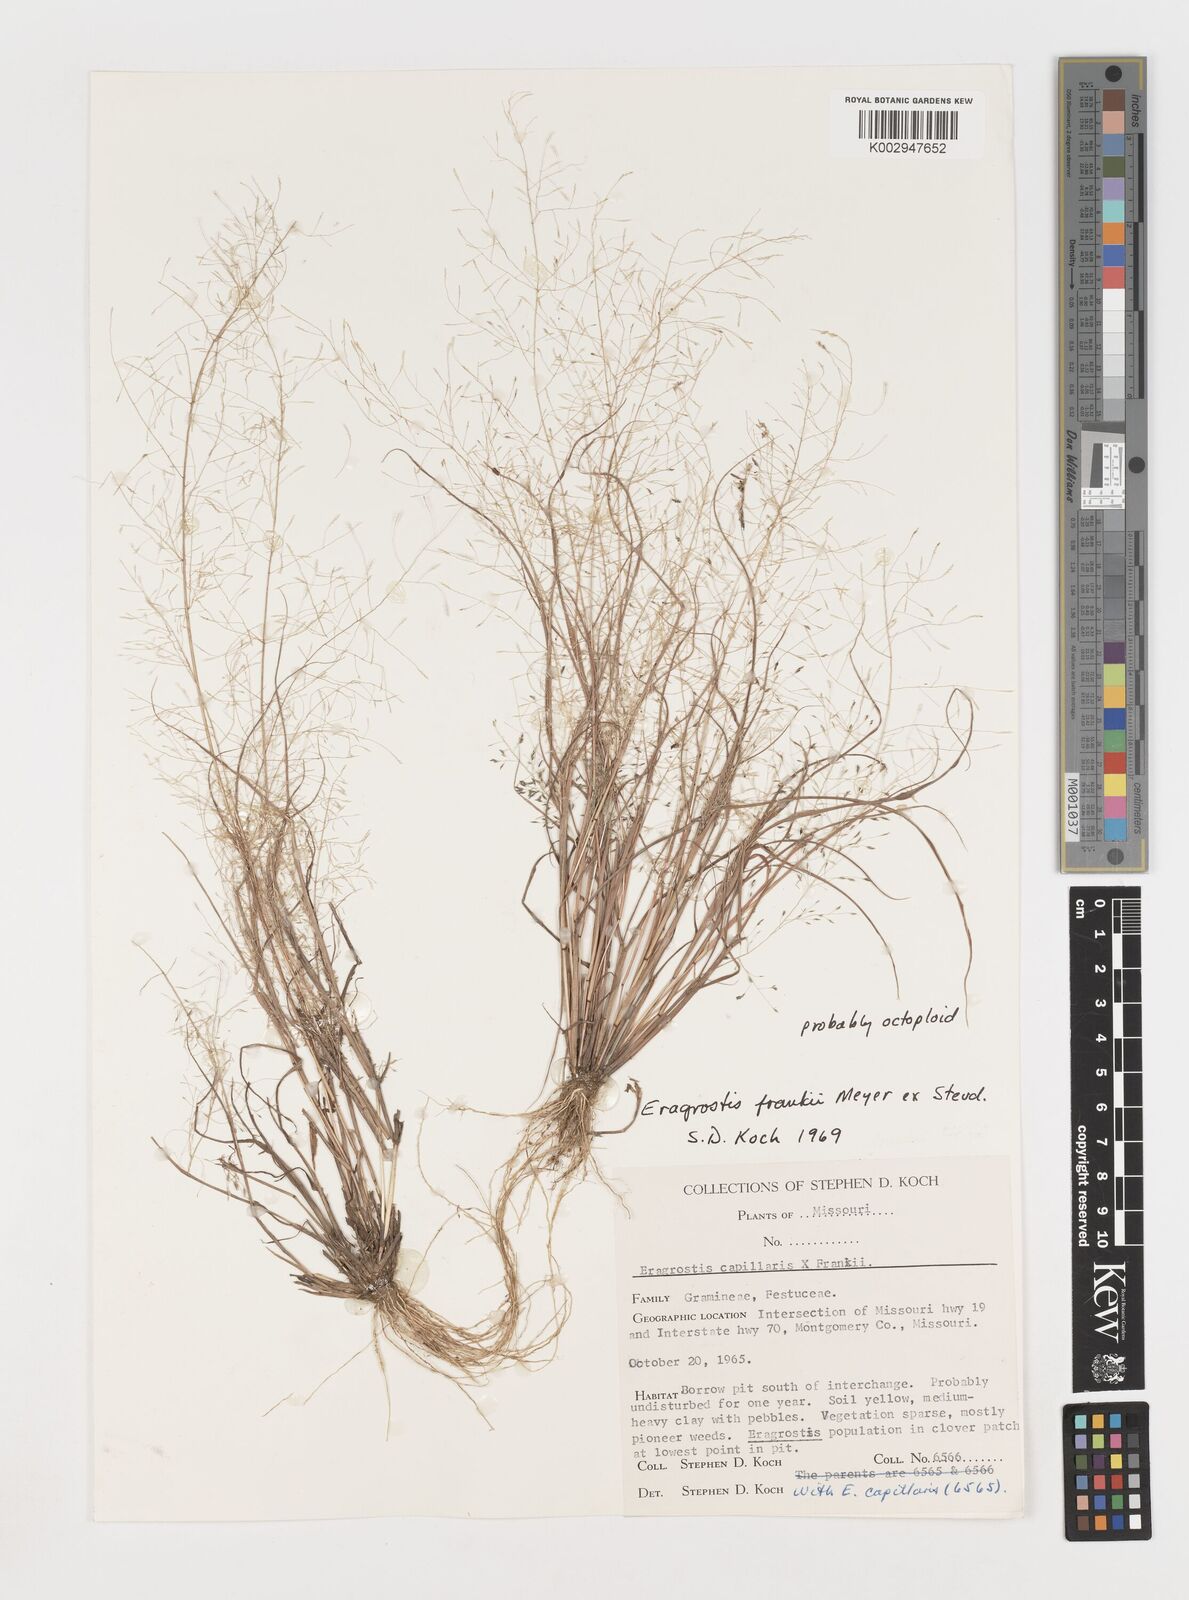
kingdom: Plantae
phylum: Tracheophyta
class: Liliopsida
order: Poales
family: Poaceae
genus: Eragrostis
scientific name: Eragrostis frankii
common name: Frank's lovegrass
